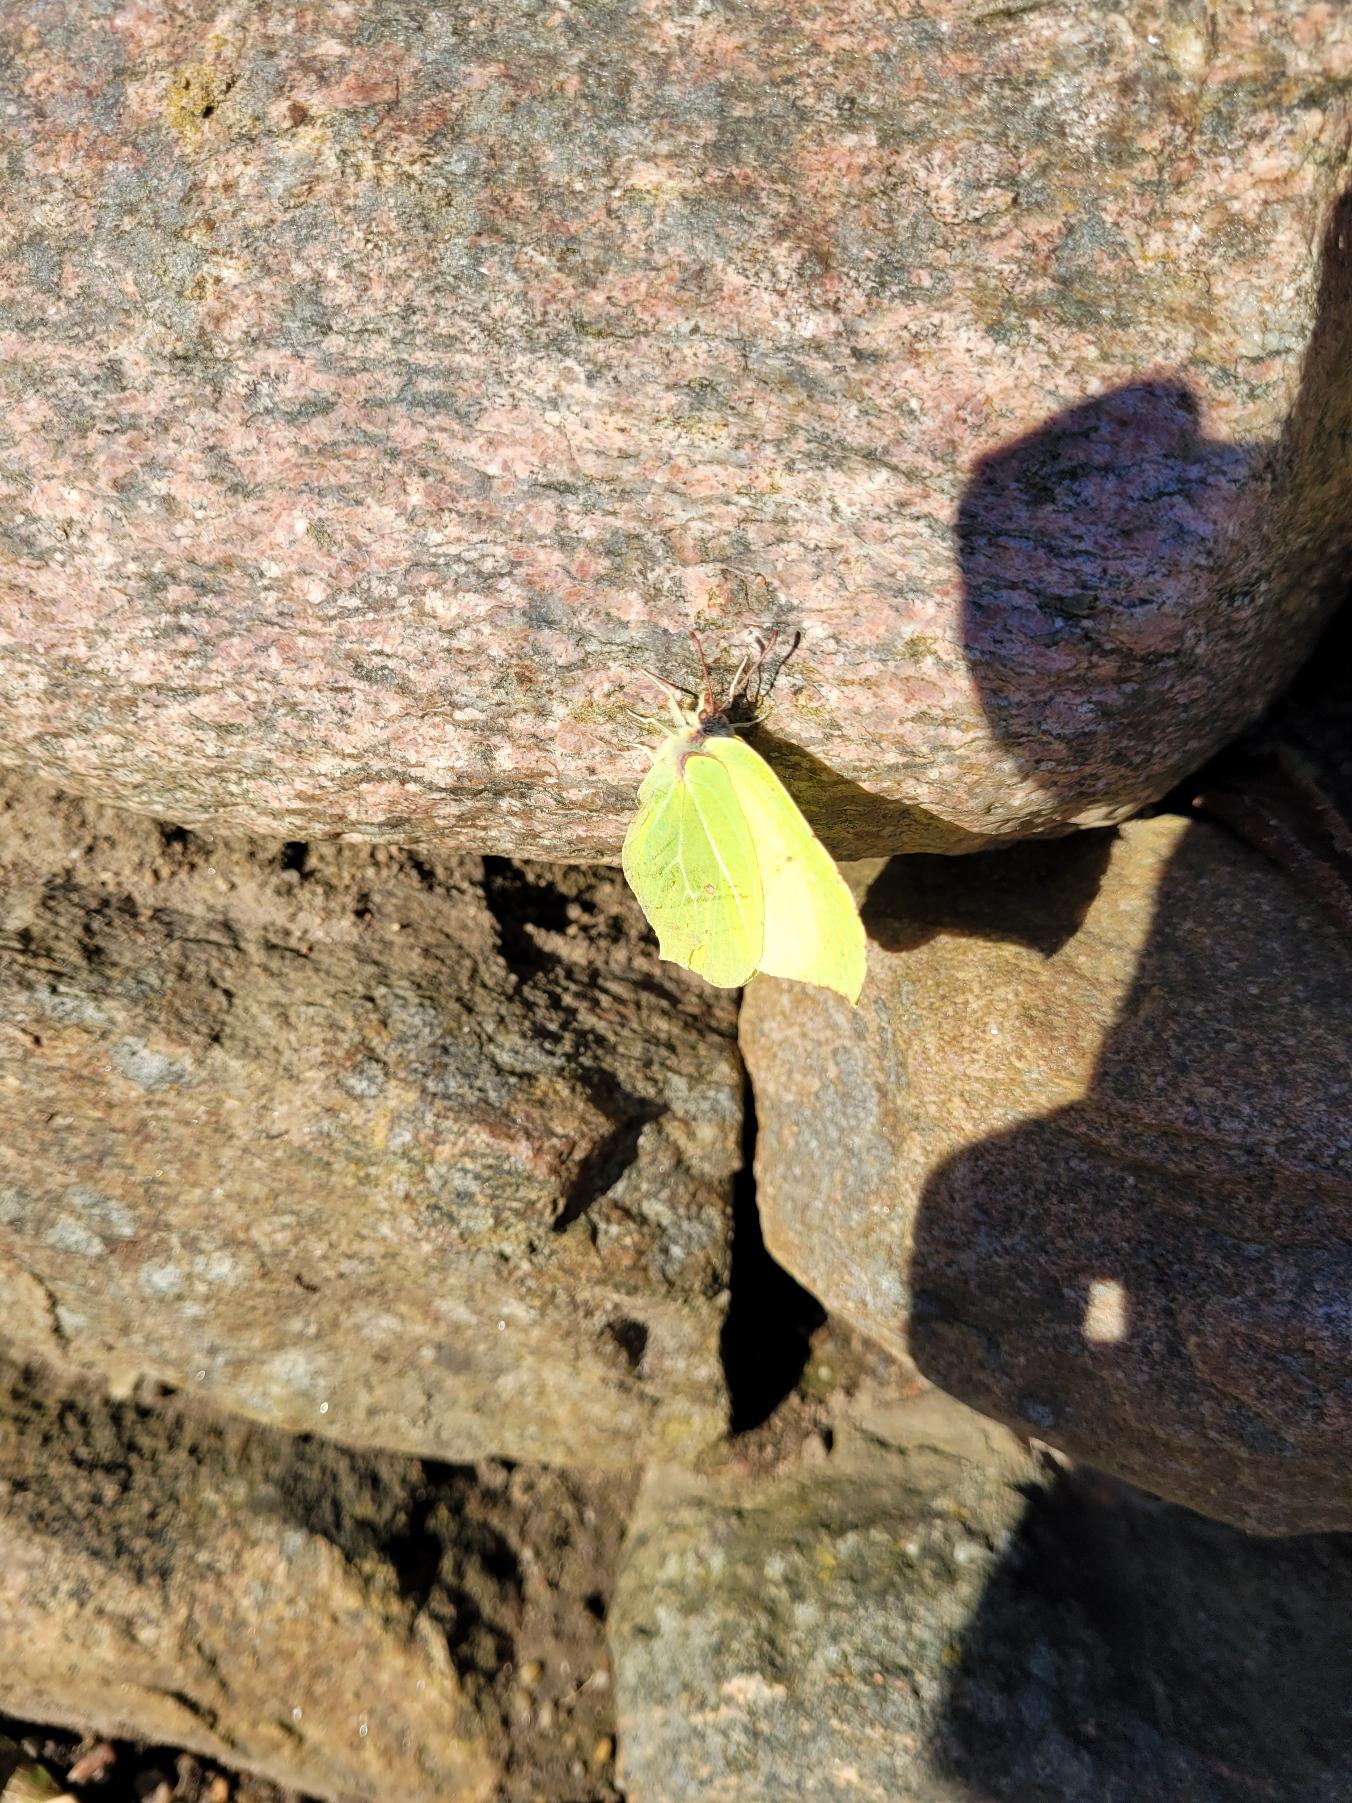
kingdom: Animalia
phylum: Arthropoda
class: Insecta
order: Lepidoptera
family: Pieridae
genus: Gonepteryx
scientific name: Gonepteryx rhamni
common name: Citronsommerfugl
